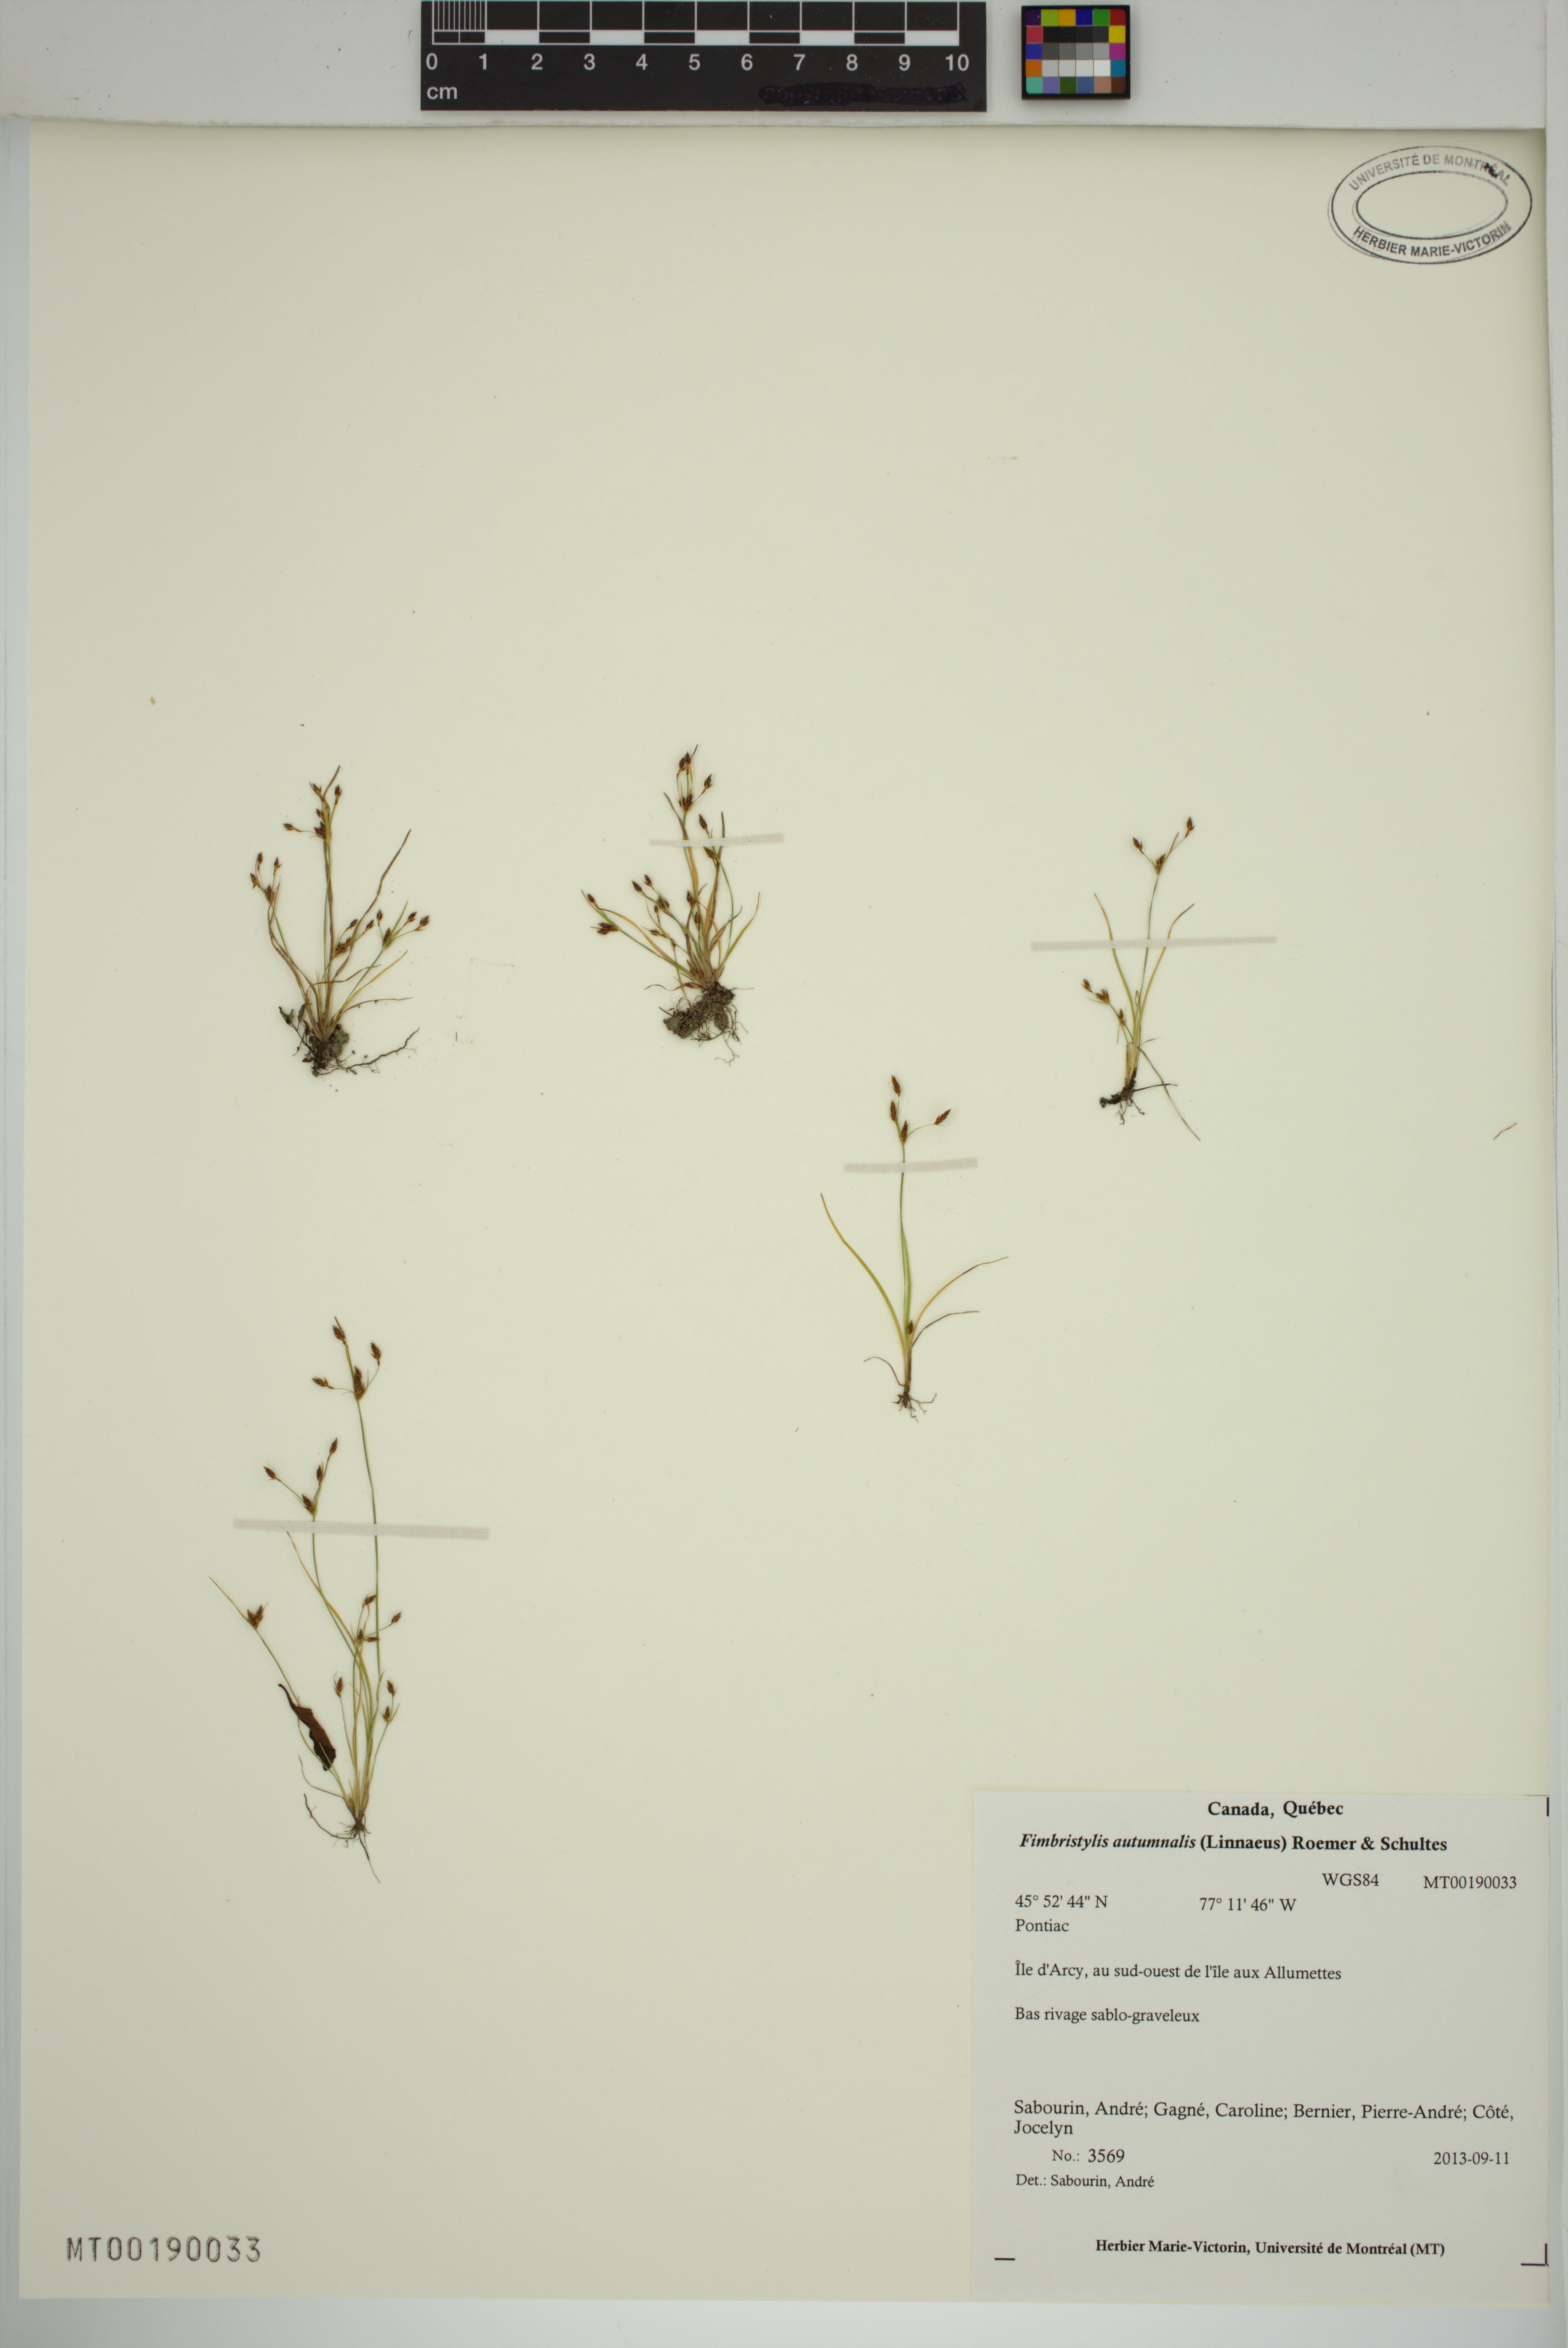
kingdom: Plantae
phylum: Tracheophyta
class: Liliopsida
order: Poales
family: Cyperaceae
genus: Fimbristylis
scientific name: Fimbristylis autumnalis
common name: Slender fimbristylis
